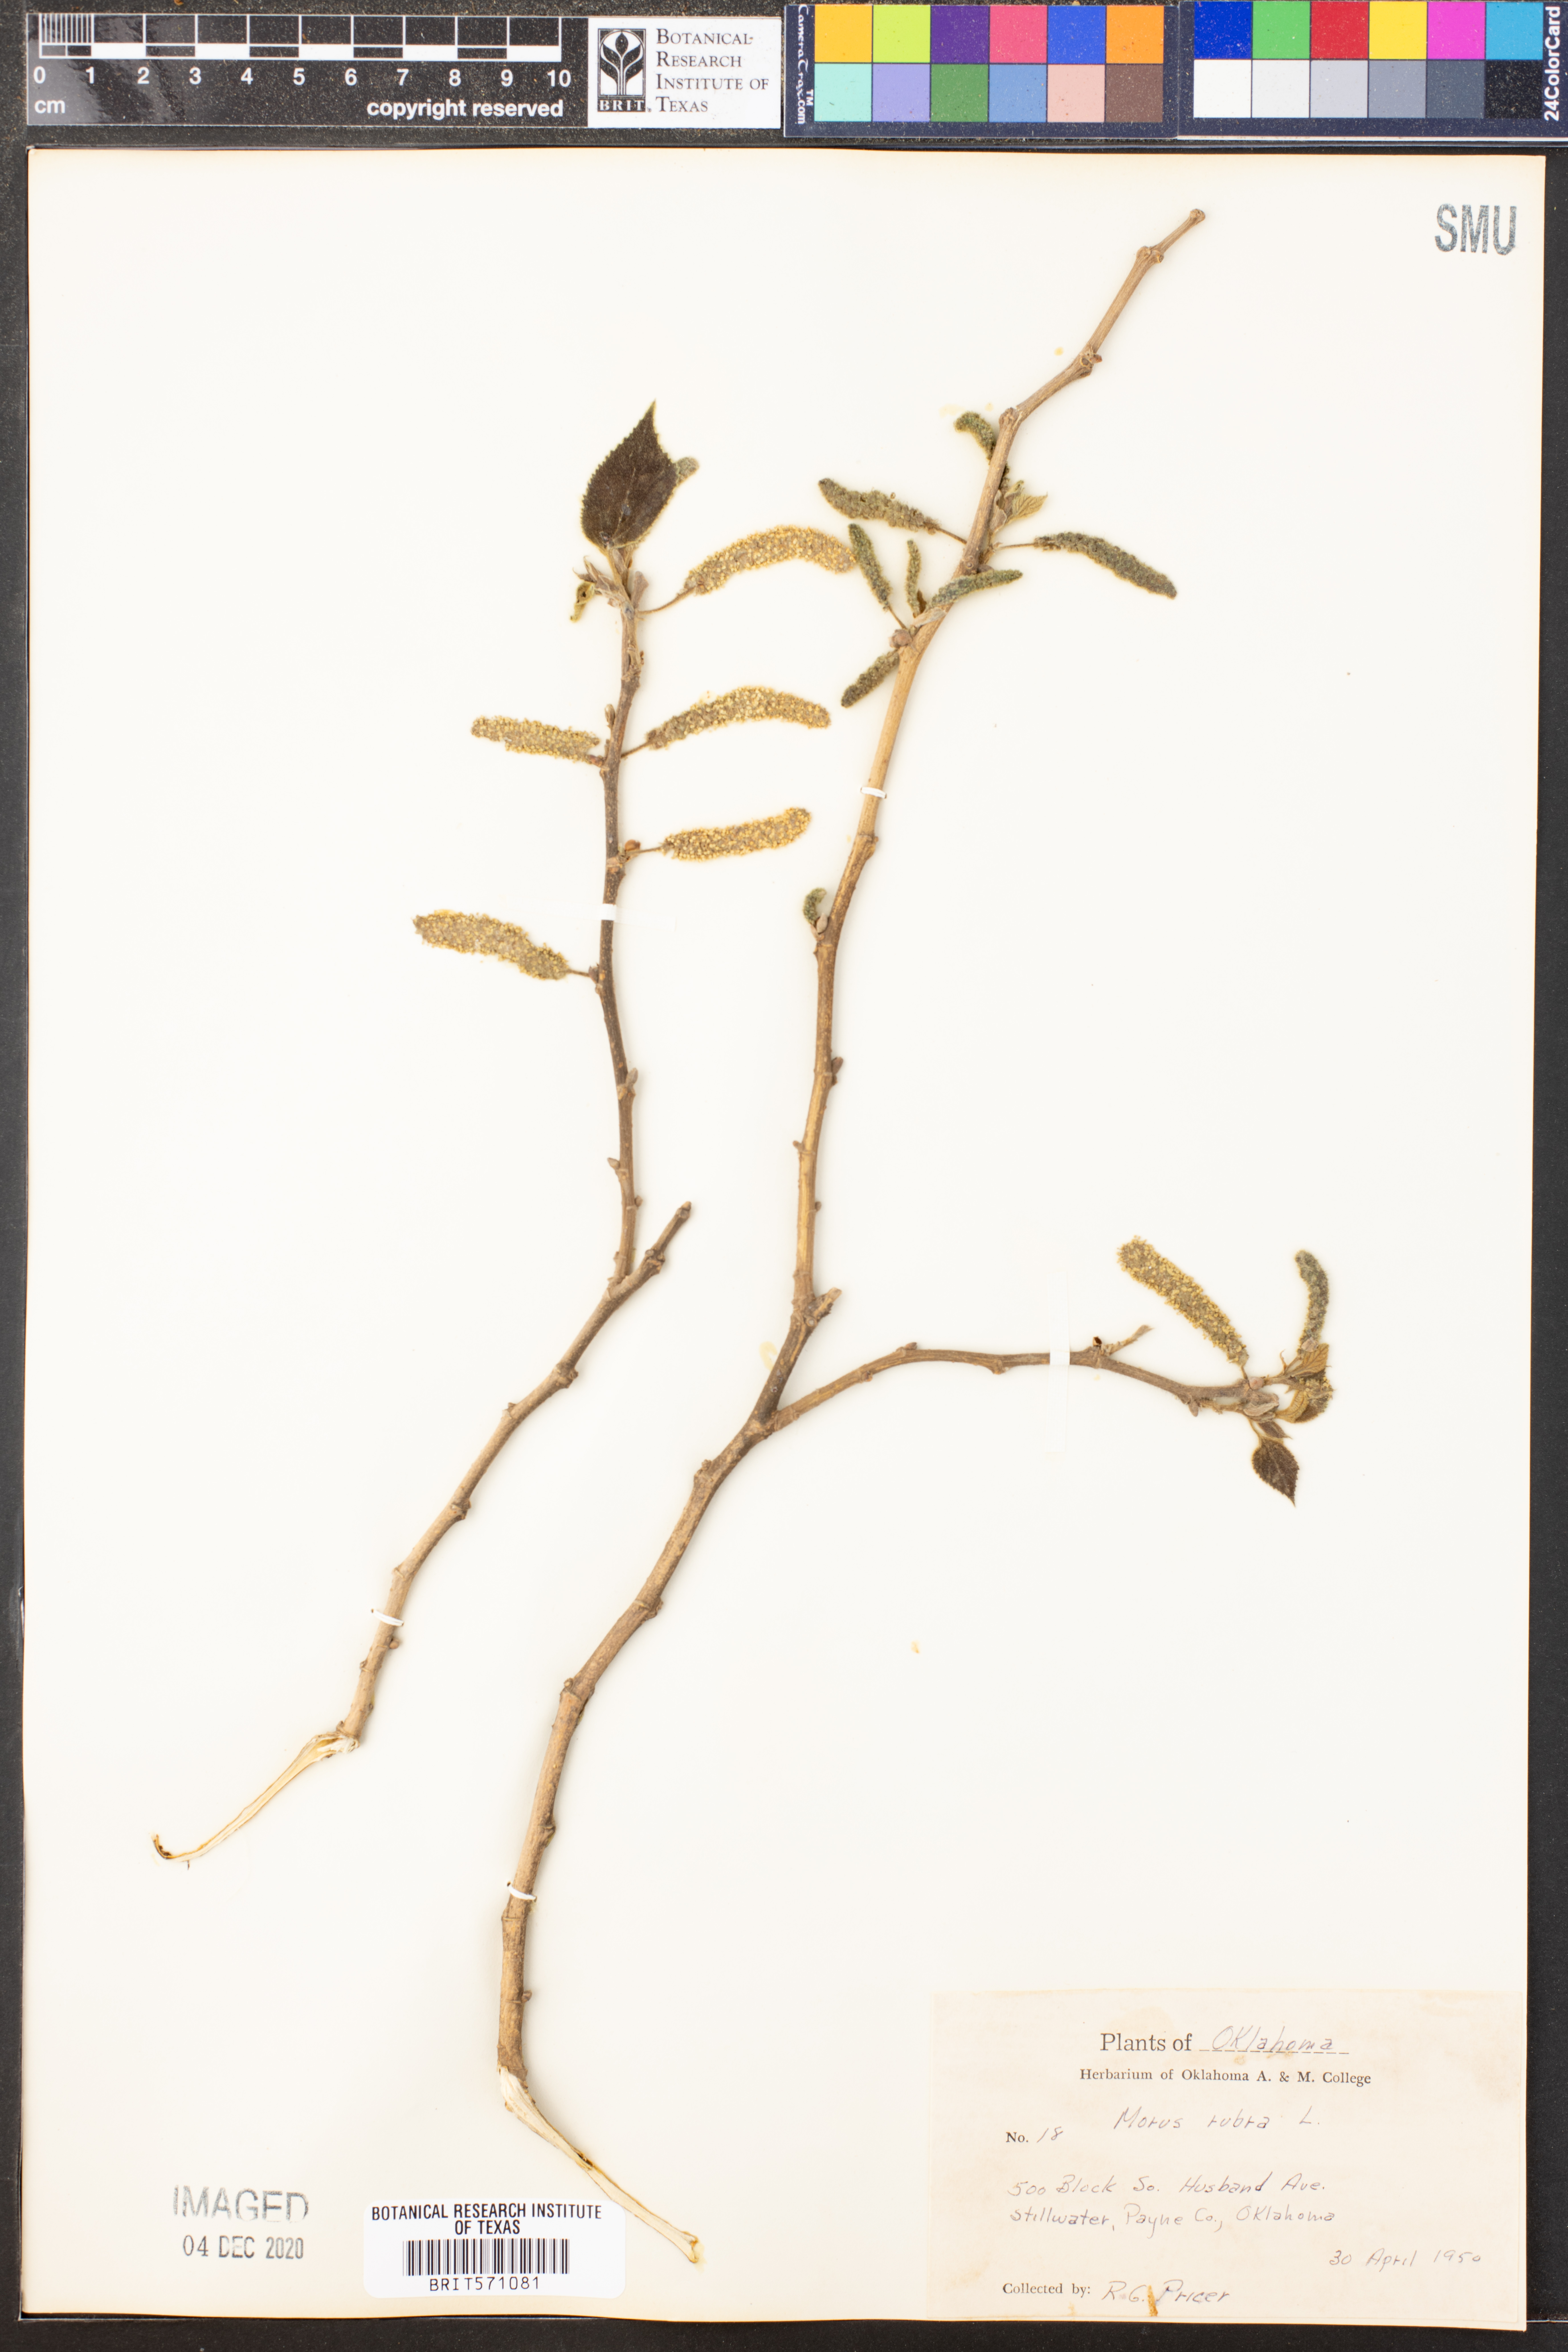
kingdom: Plantae
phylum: Tracheophyta
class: Magnoliopsida
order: Rosales
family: Moraceae
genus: Morus
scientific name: Morus rubra
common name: Red mulberry
